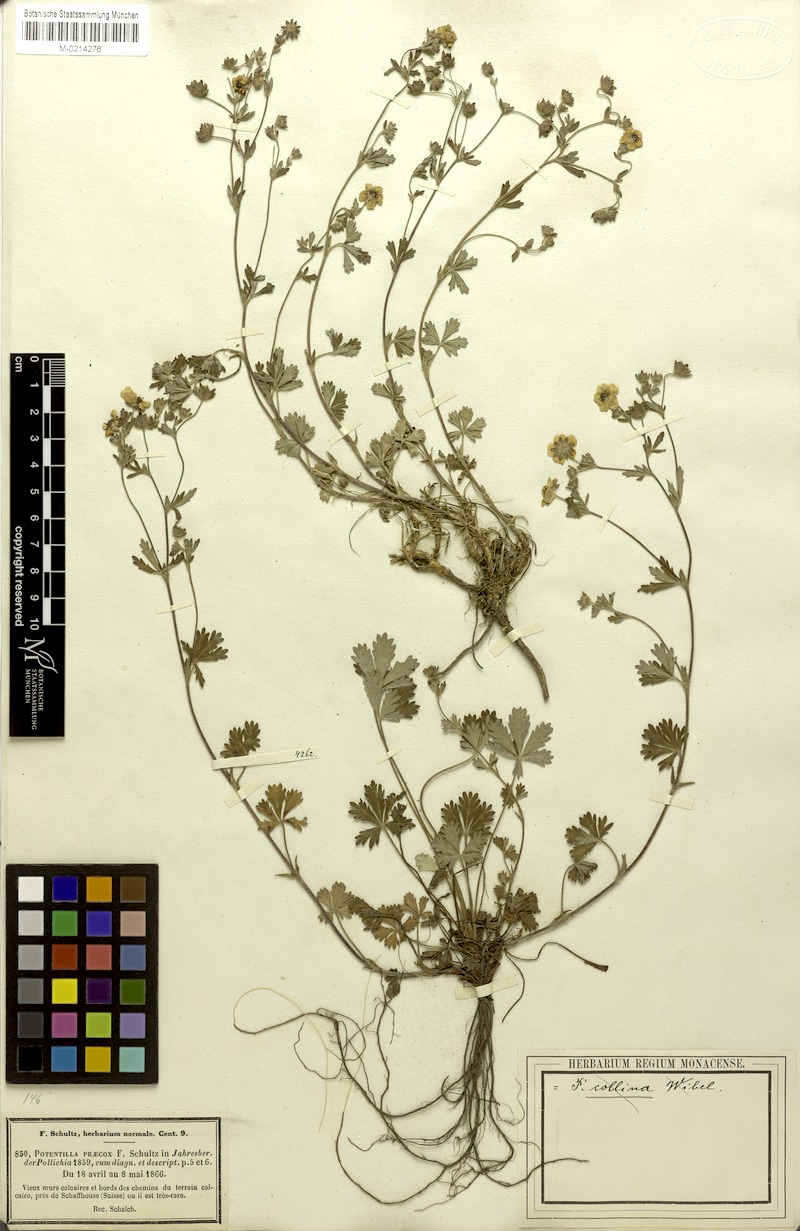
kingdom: Plantae
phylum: Tracheophyta
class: Magnoliopsida
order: Rosales
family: Rosaceae
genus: Potentilla
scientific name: Potentilla collina
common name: Palmleaf cinquefoil
